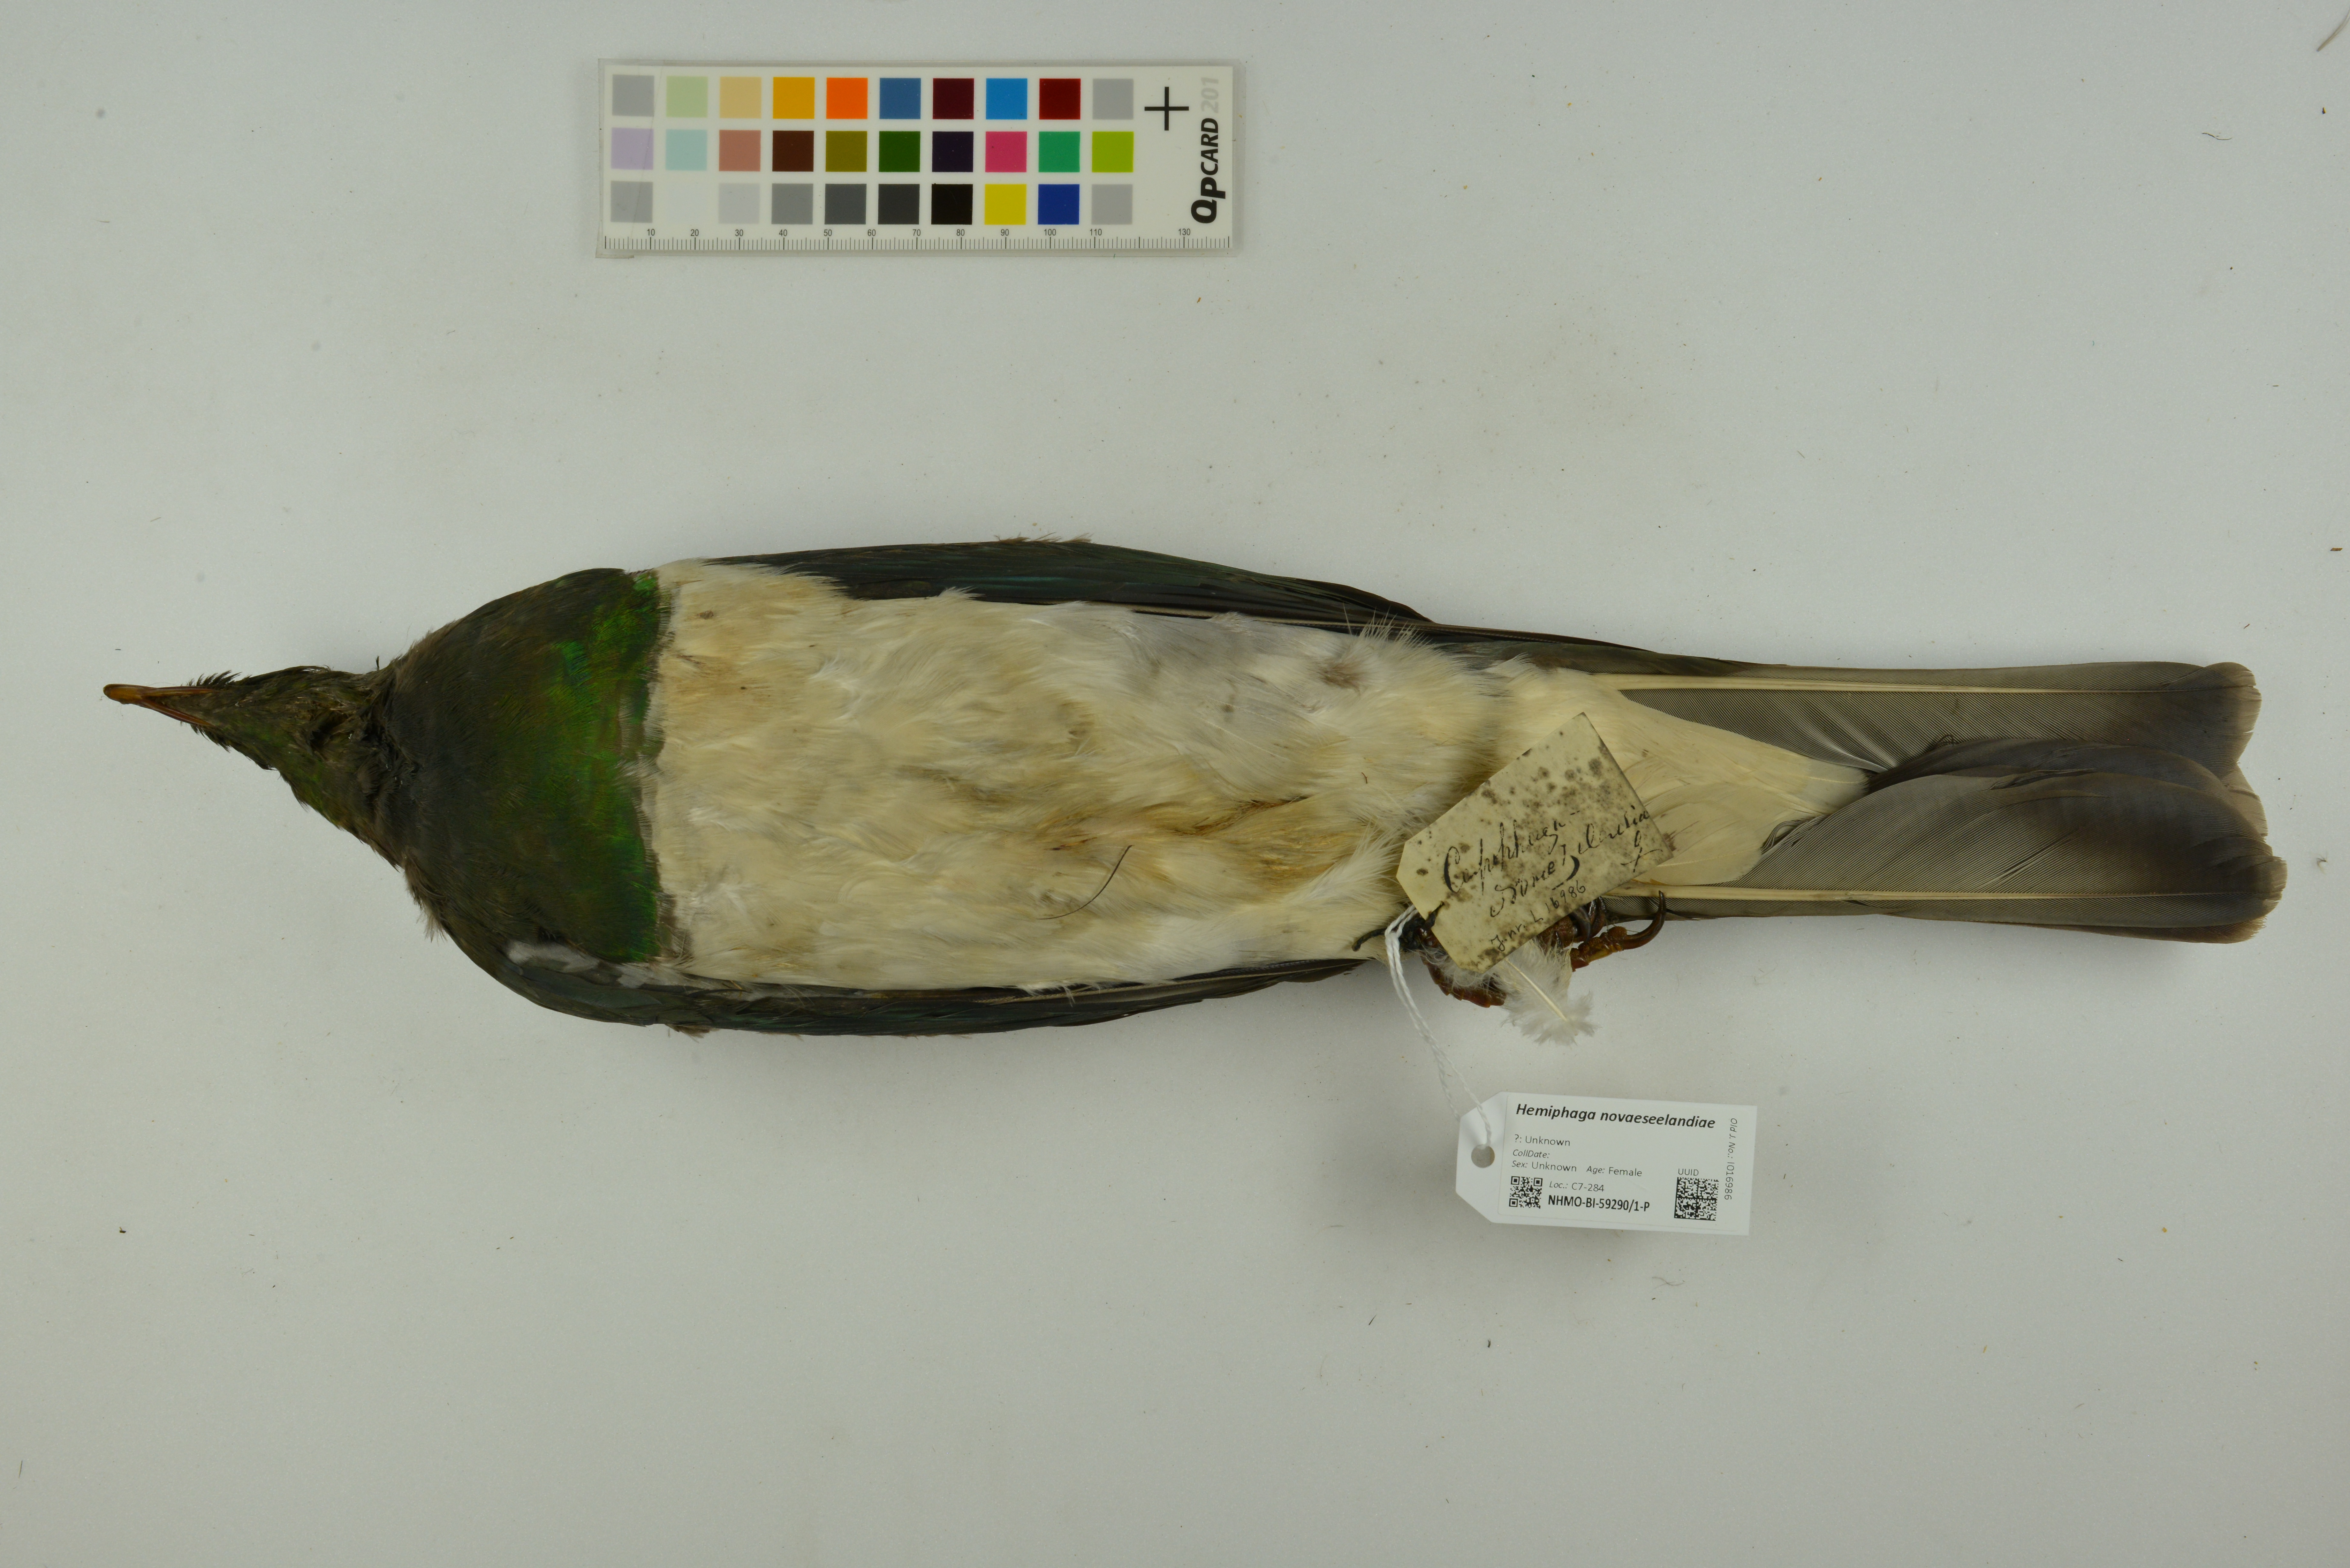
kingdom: Animalia
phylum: Chordata
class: Aves
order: Columbiformes
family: Columbidae
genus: Hemiphaga
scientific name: Hemiphaga novaeseelandiae
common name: New zealand pigeon
